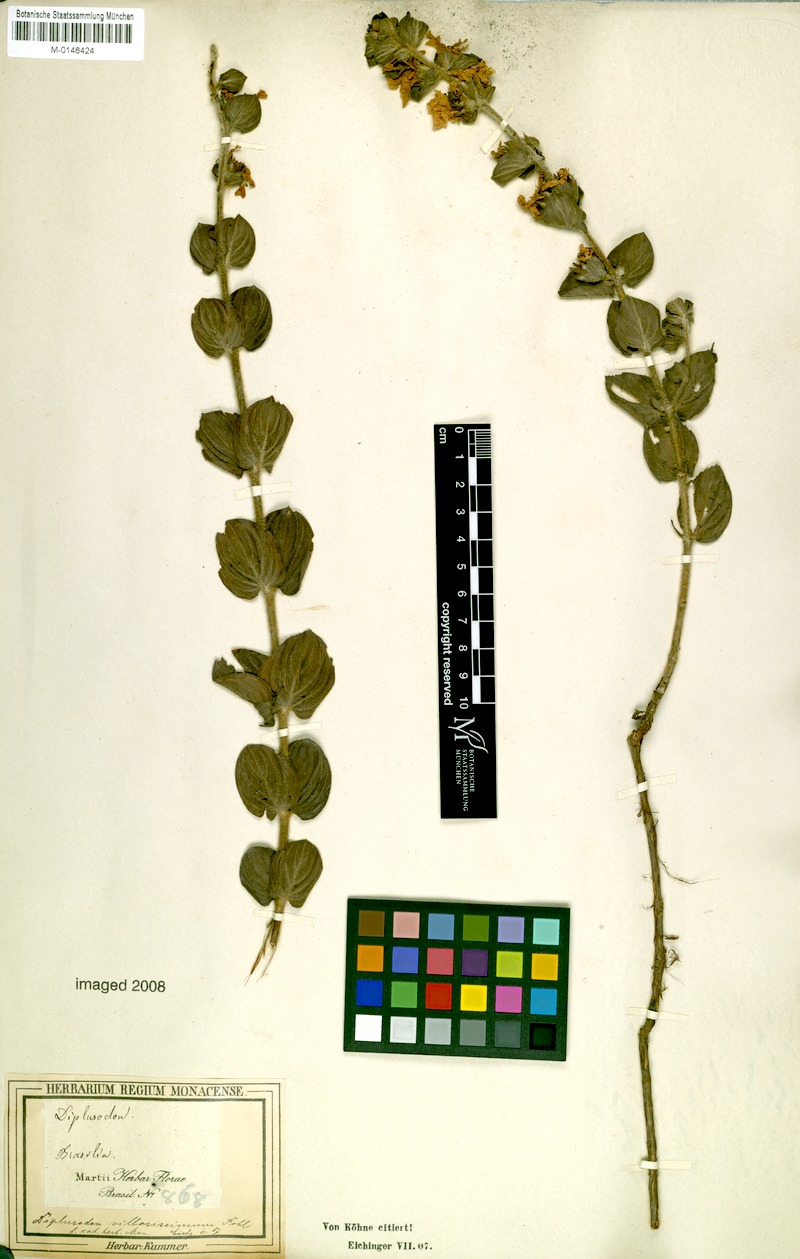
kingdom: Plantae
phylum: Tracheophyta
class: Magnoliopsida
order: Myrtales
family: Lythraceae
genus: Diplusodon
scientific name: Diplusodon villosissimus
